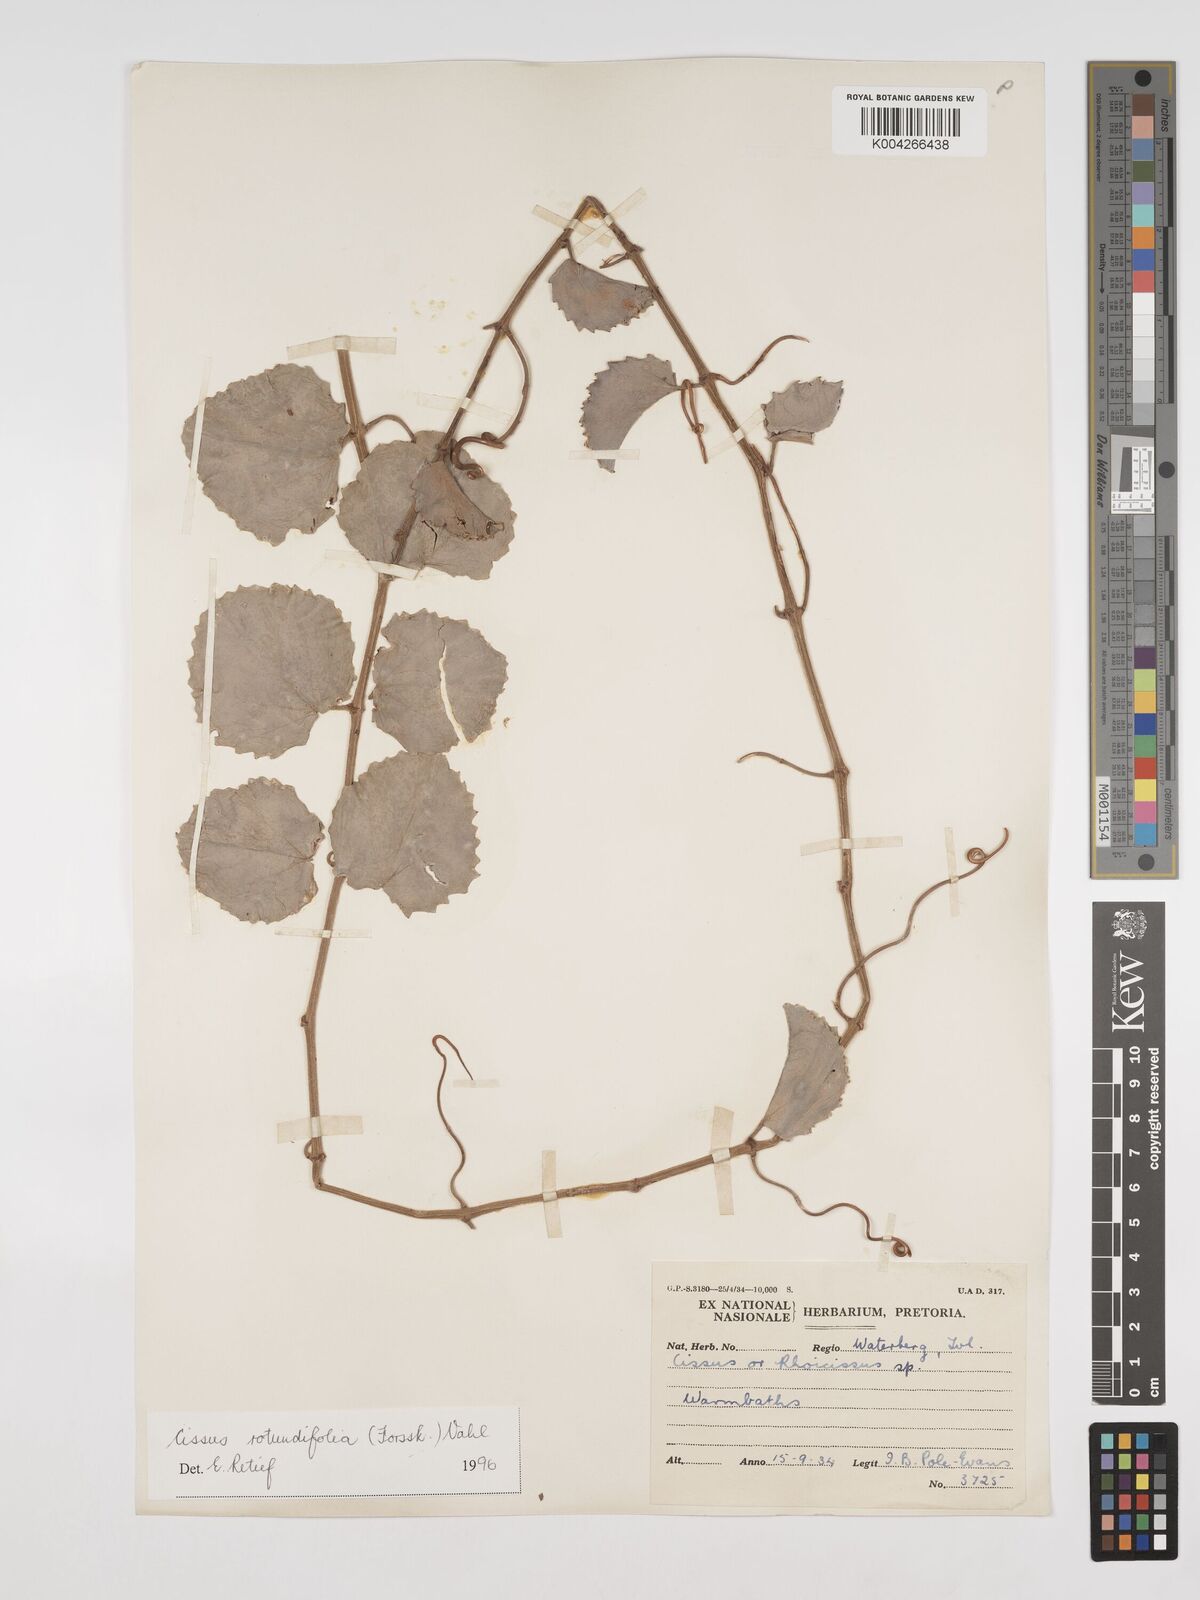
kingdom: Plantae
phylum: Tracheophyta
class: Magnoliopsida
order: Vitales
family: Vitaceae
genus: Cissus
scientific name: Cissus
